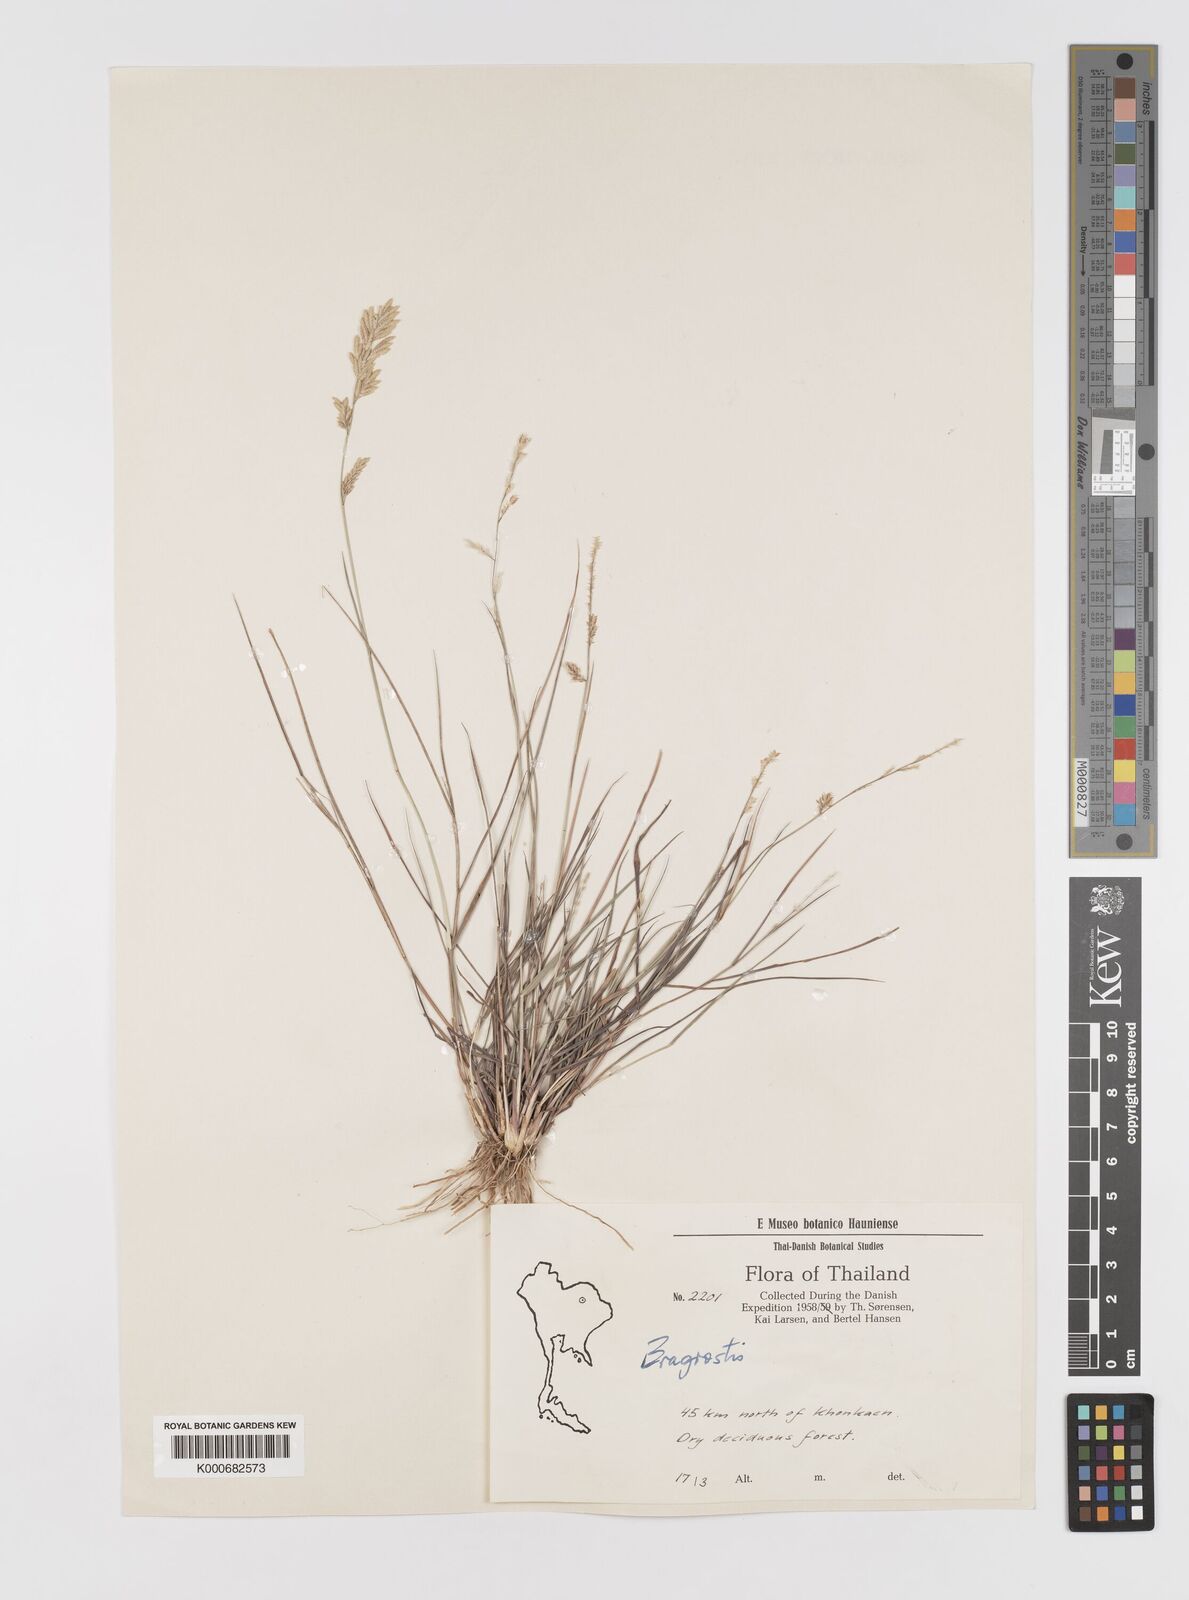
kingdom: Plantae
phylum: Tracheophyta
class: Liliopsida
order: Poales
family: Poaceae
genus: Eragrostis
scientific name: Eragrostis
